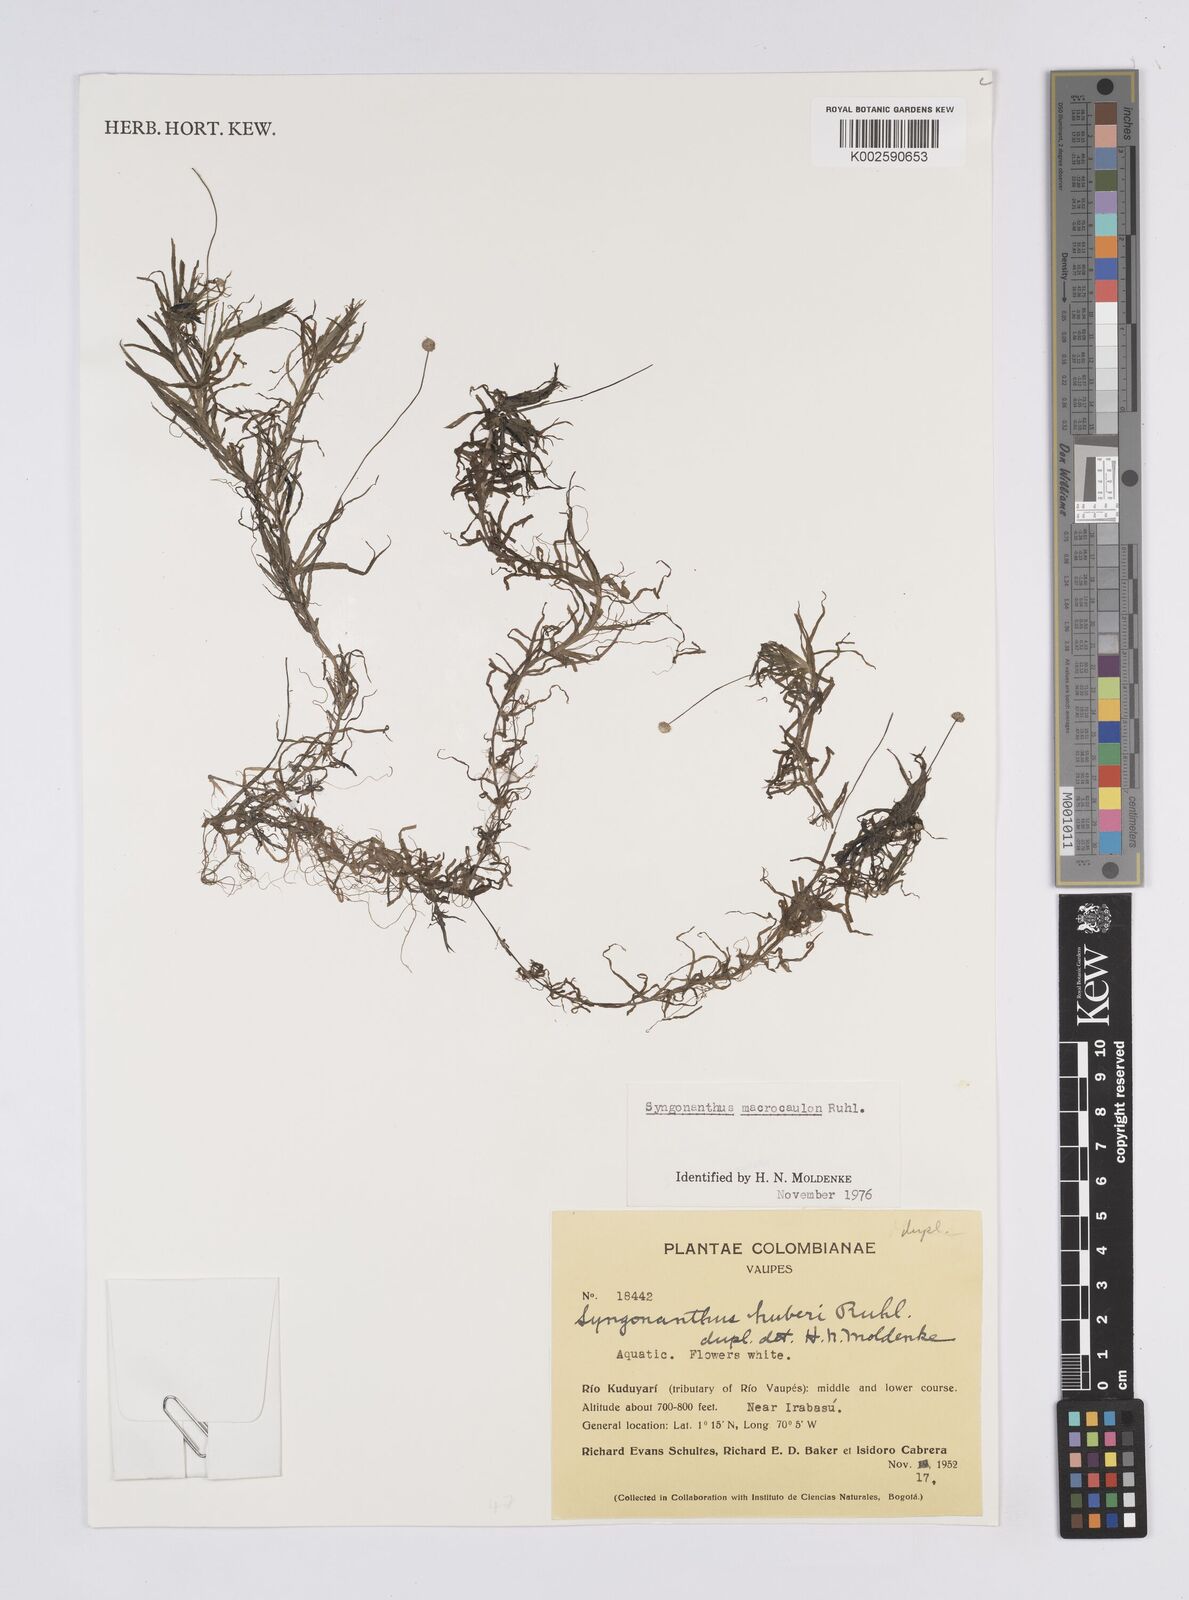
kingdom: Plantae
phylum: Tracheophyta
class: Liliopsida
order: Poales
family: Eriocaulaceae
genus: Syngonanthus
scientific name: Syngonanthus anomalus
